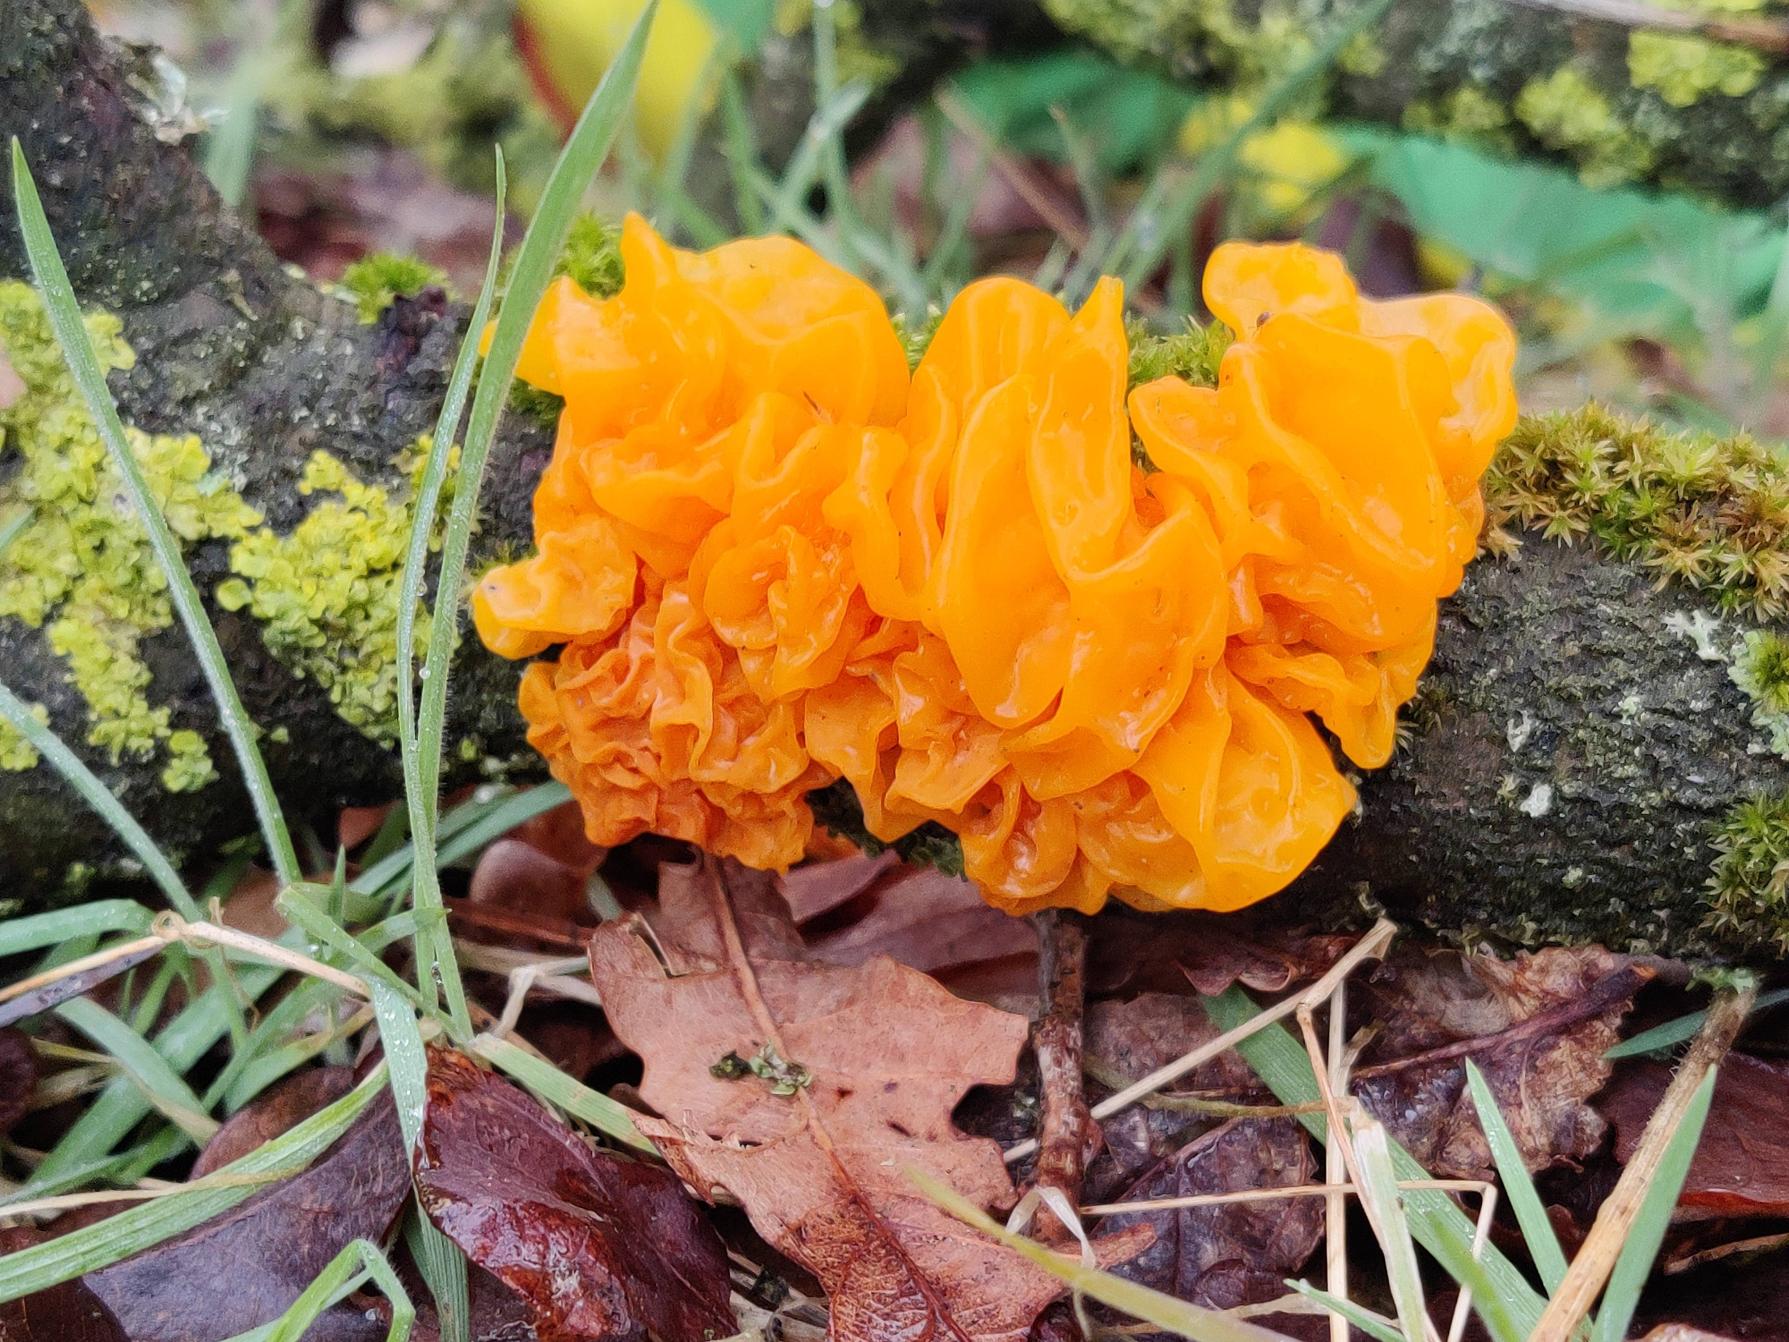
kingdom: Fungi
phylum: Basidiomycota
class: Tremellomycetes
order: Tremellales
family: Tremellaceae
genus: Tremella
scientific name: Tremella mesenterica
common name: Gul bævresvamp
